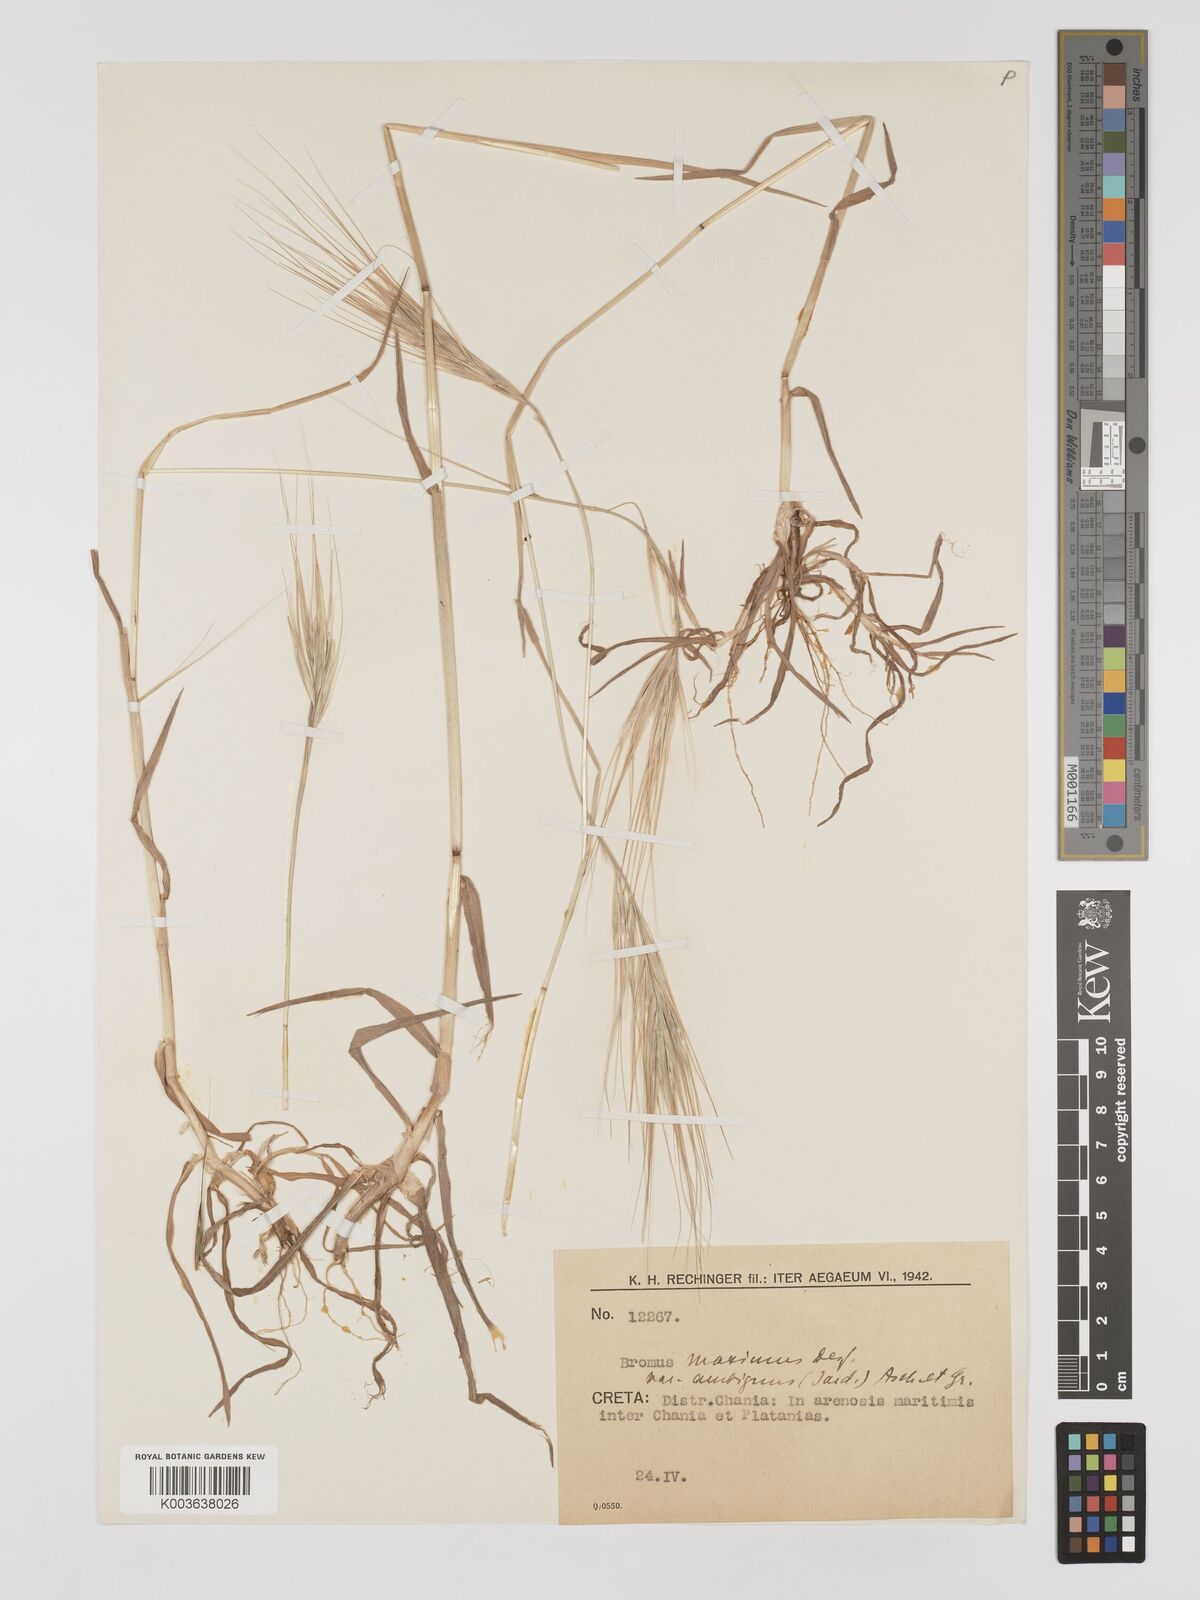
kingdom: Plantae
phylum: Tracheophyta
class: Liliopsida
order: Poales
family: Poaceae
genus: Bromus
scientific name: Bromus
